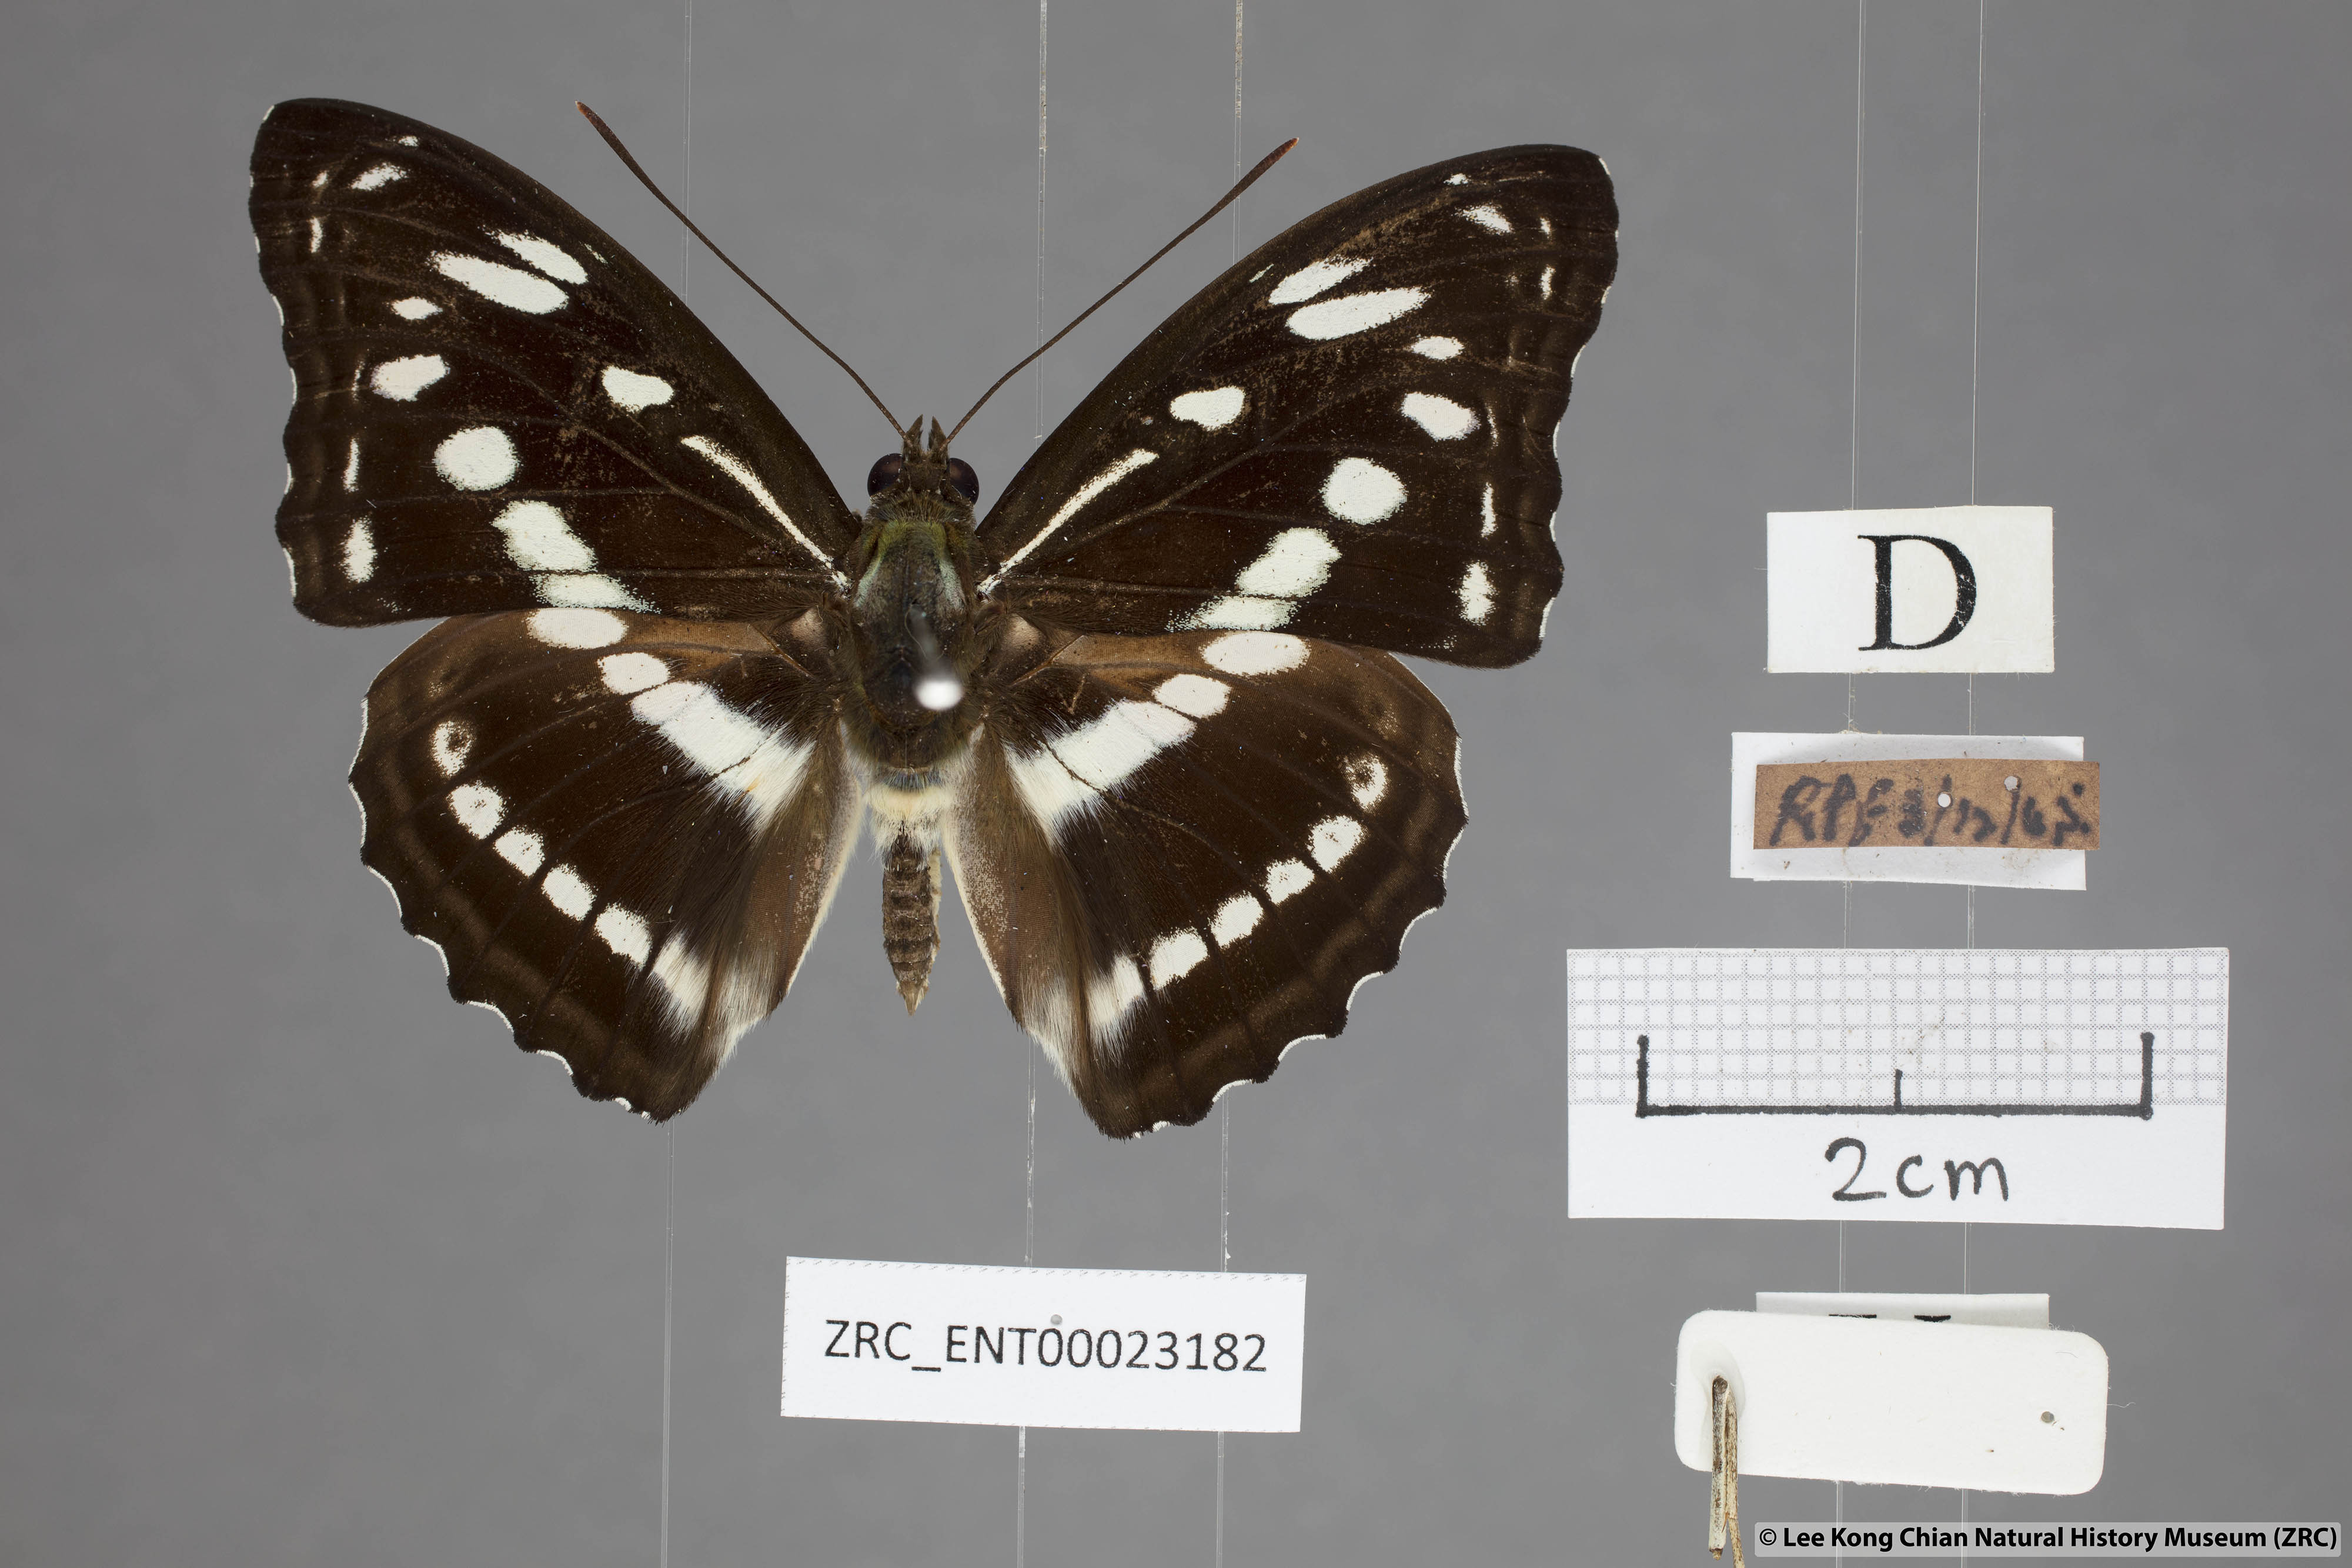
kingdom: Animalia
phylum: Arthropoda
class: Insecta
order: Lepidoptera
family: Nymphalidae
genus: Parathyma
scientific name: Parathyma asura
